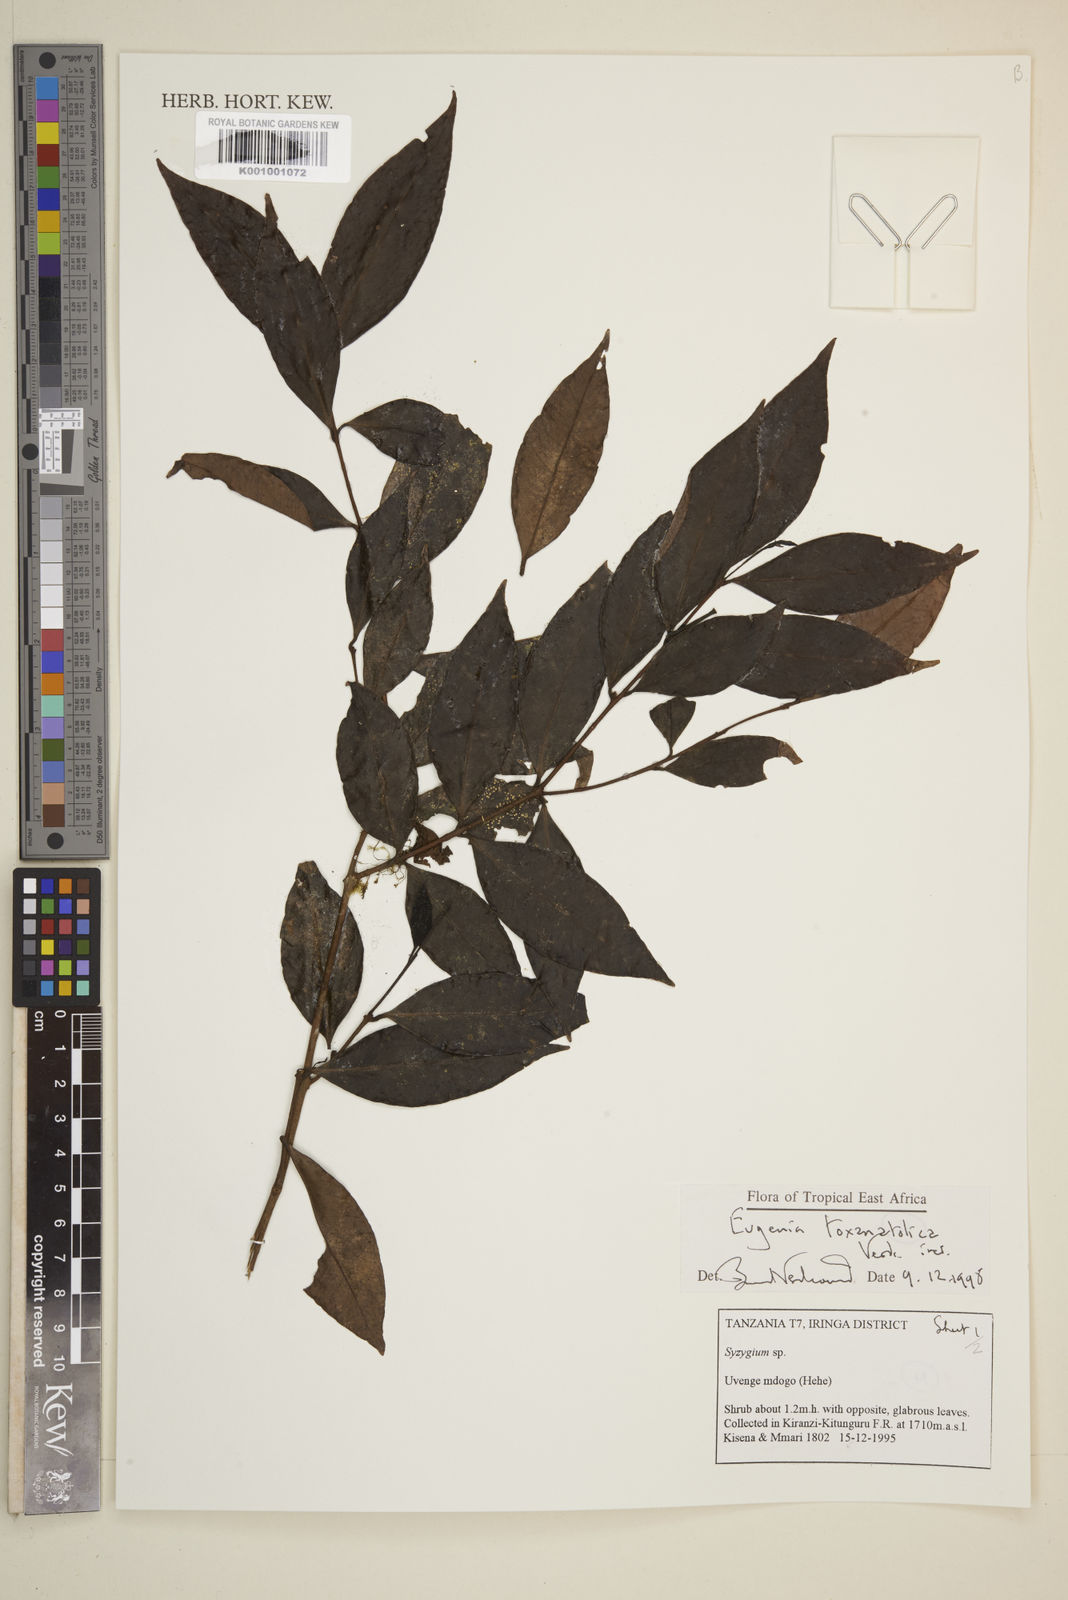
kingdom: Plantae
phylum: Tracheophyta
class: Magnoliopsida
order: Myrtales
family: Myrtaceae
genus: Eugenia
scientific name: Eugenia toxanatolica
